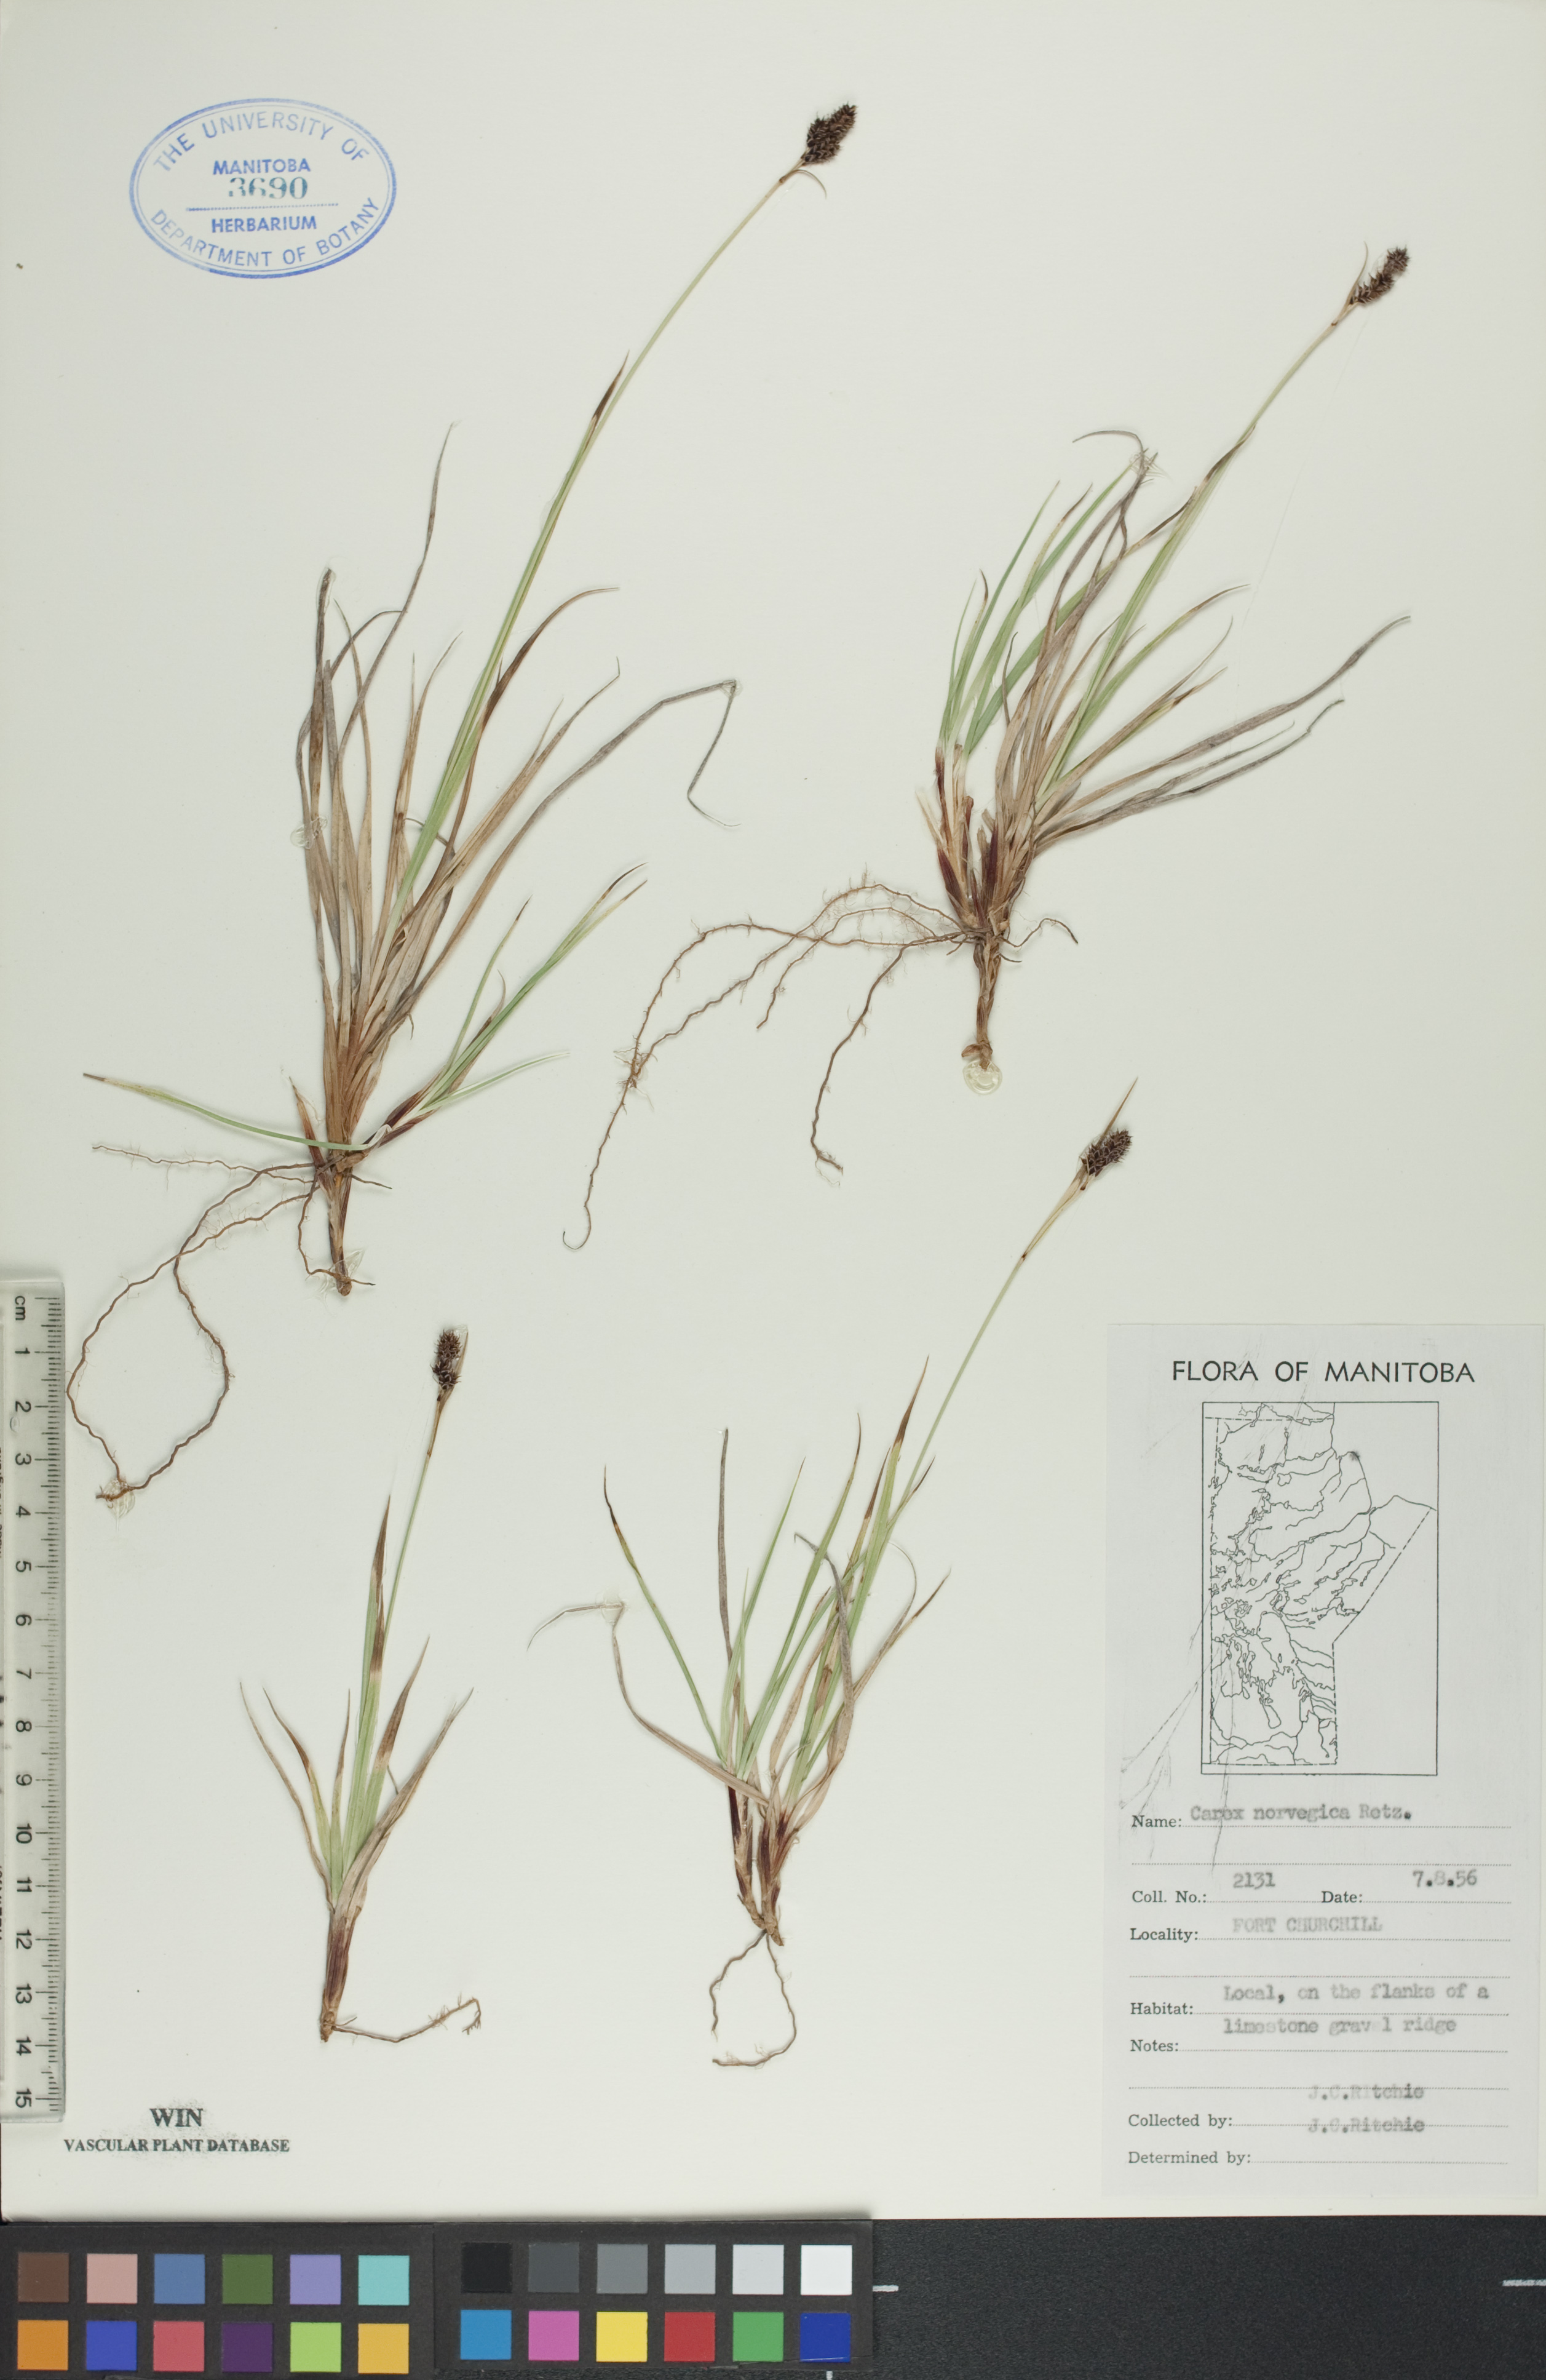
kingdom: Plantae
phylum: Tracheophyta
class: Liliopsida
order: Poales
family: Cyperaceae
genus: Carex
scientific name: Carex norvegica
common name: Close-headed alpine-sedge
